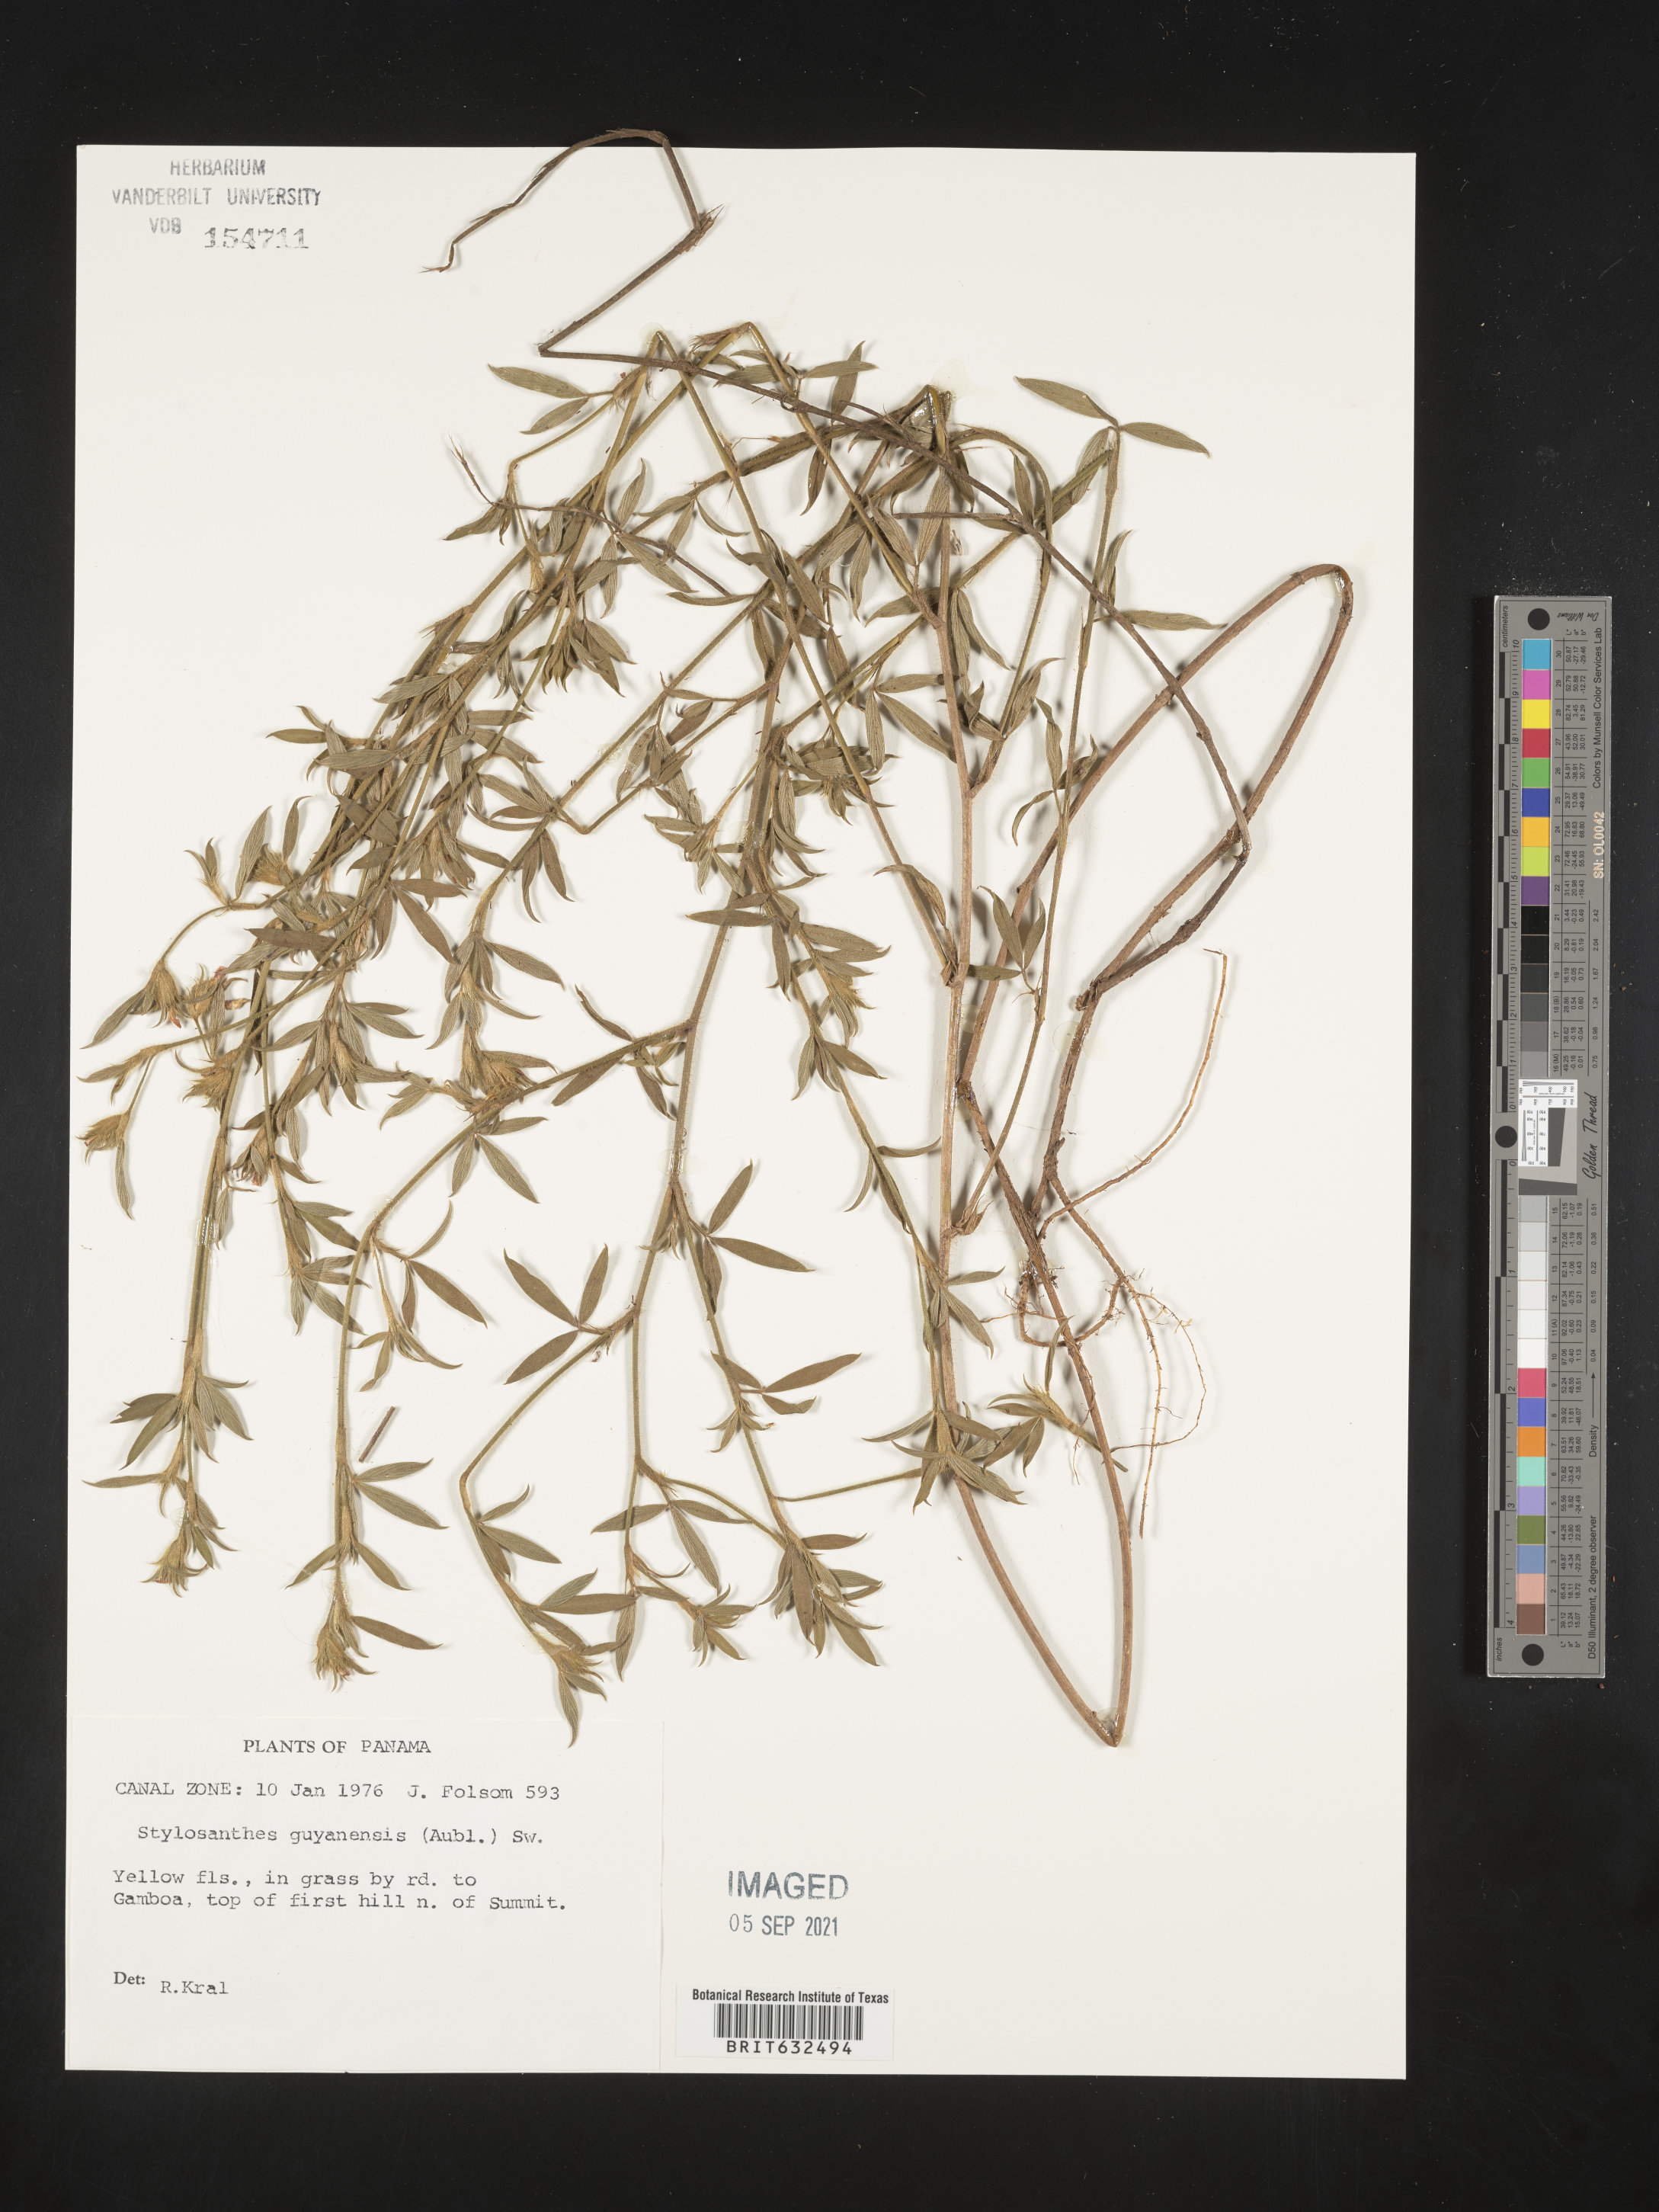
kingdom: Plantae
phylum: Tracheophyta
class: Magnoliopsida
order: Fabales
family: Fabaceae
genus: Stylosanthes
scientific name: Stylosanthes
